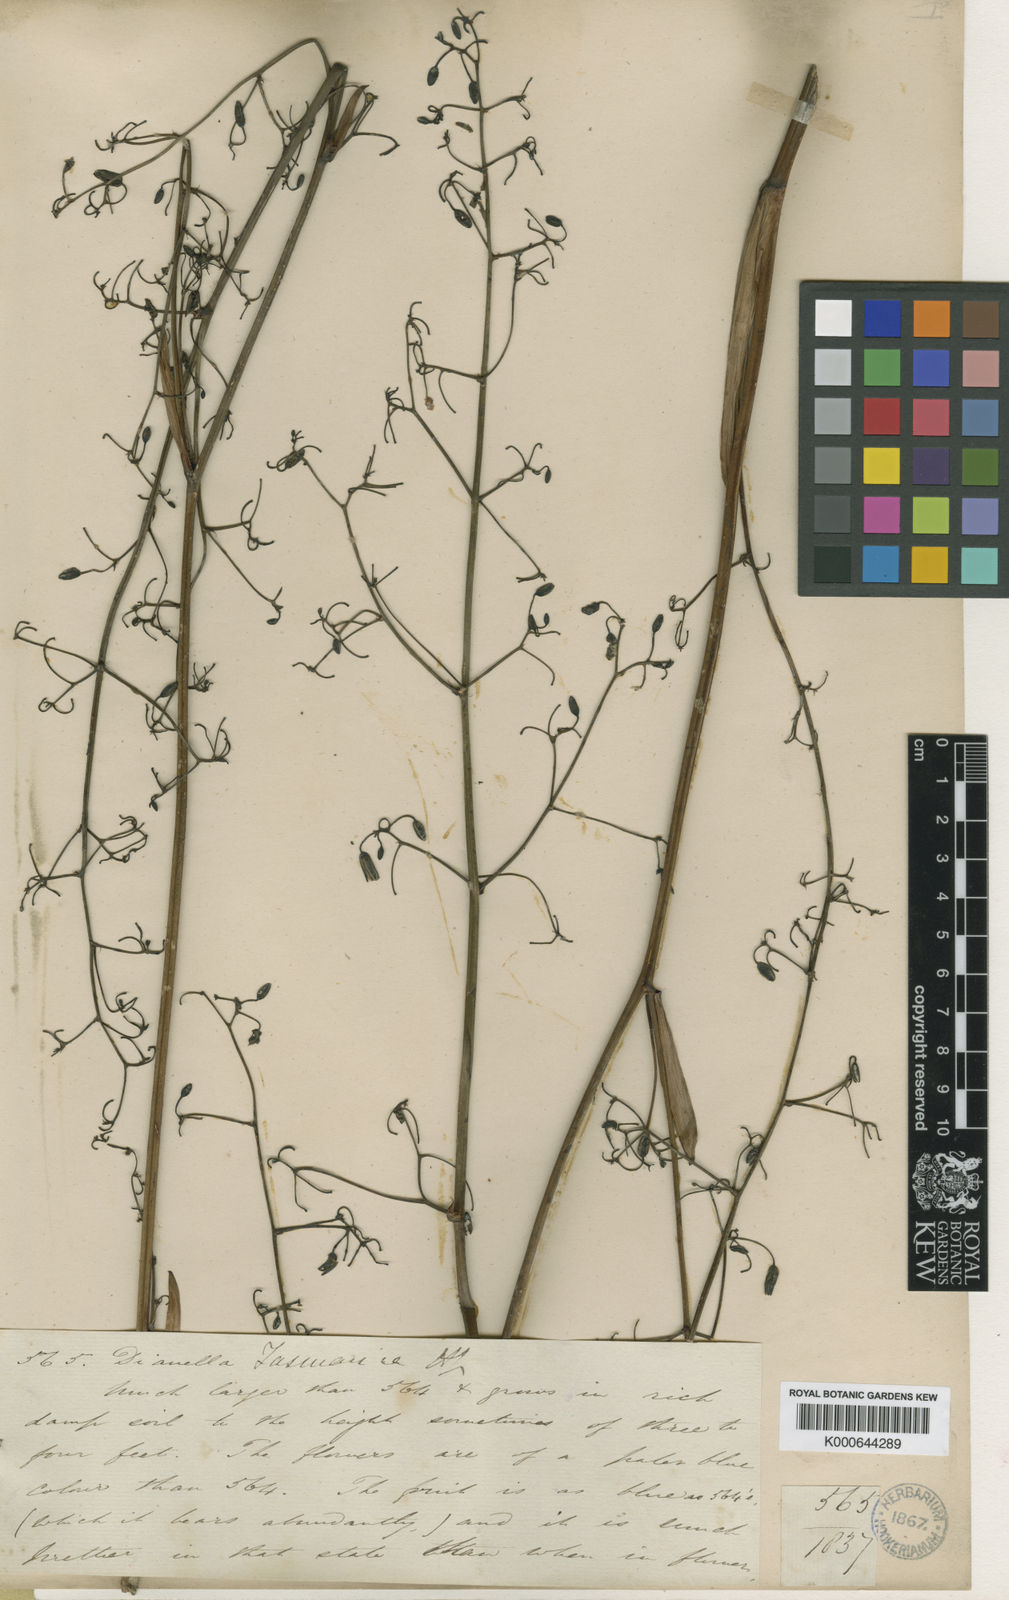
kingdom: Plantae
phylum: Tracheophyta
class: Liliopsida
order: Asparagales
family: Asphodelaceae
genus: Dianella
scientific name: Dianella tasmanica
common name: Tasman flax-lily
